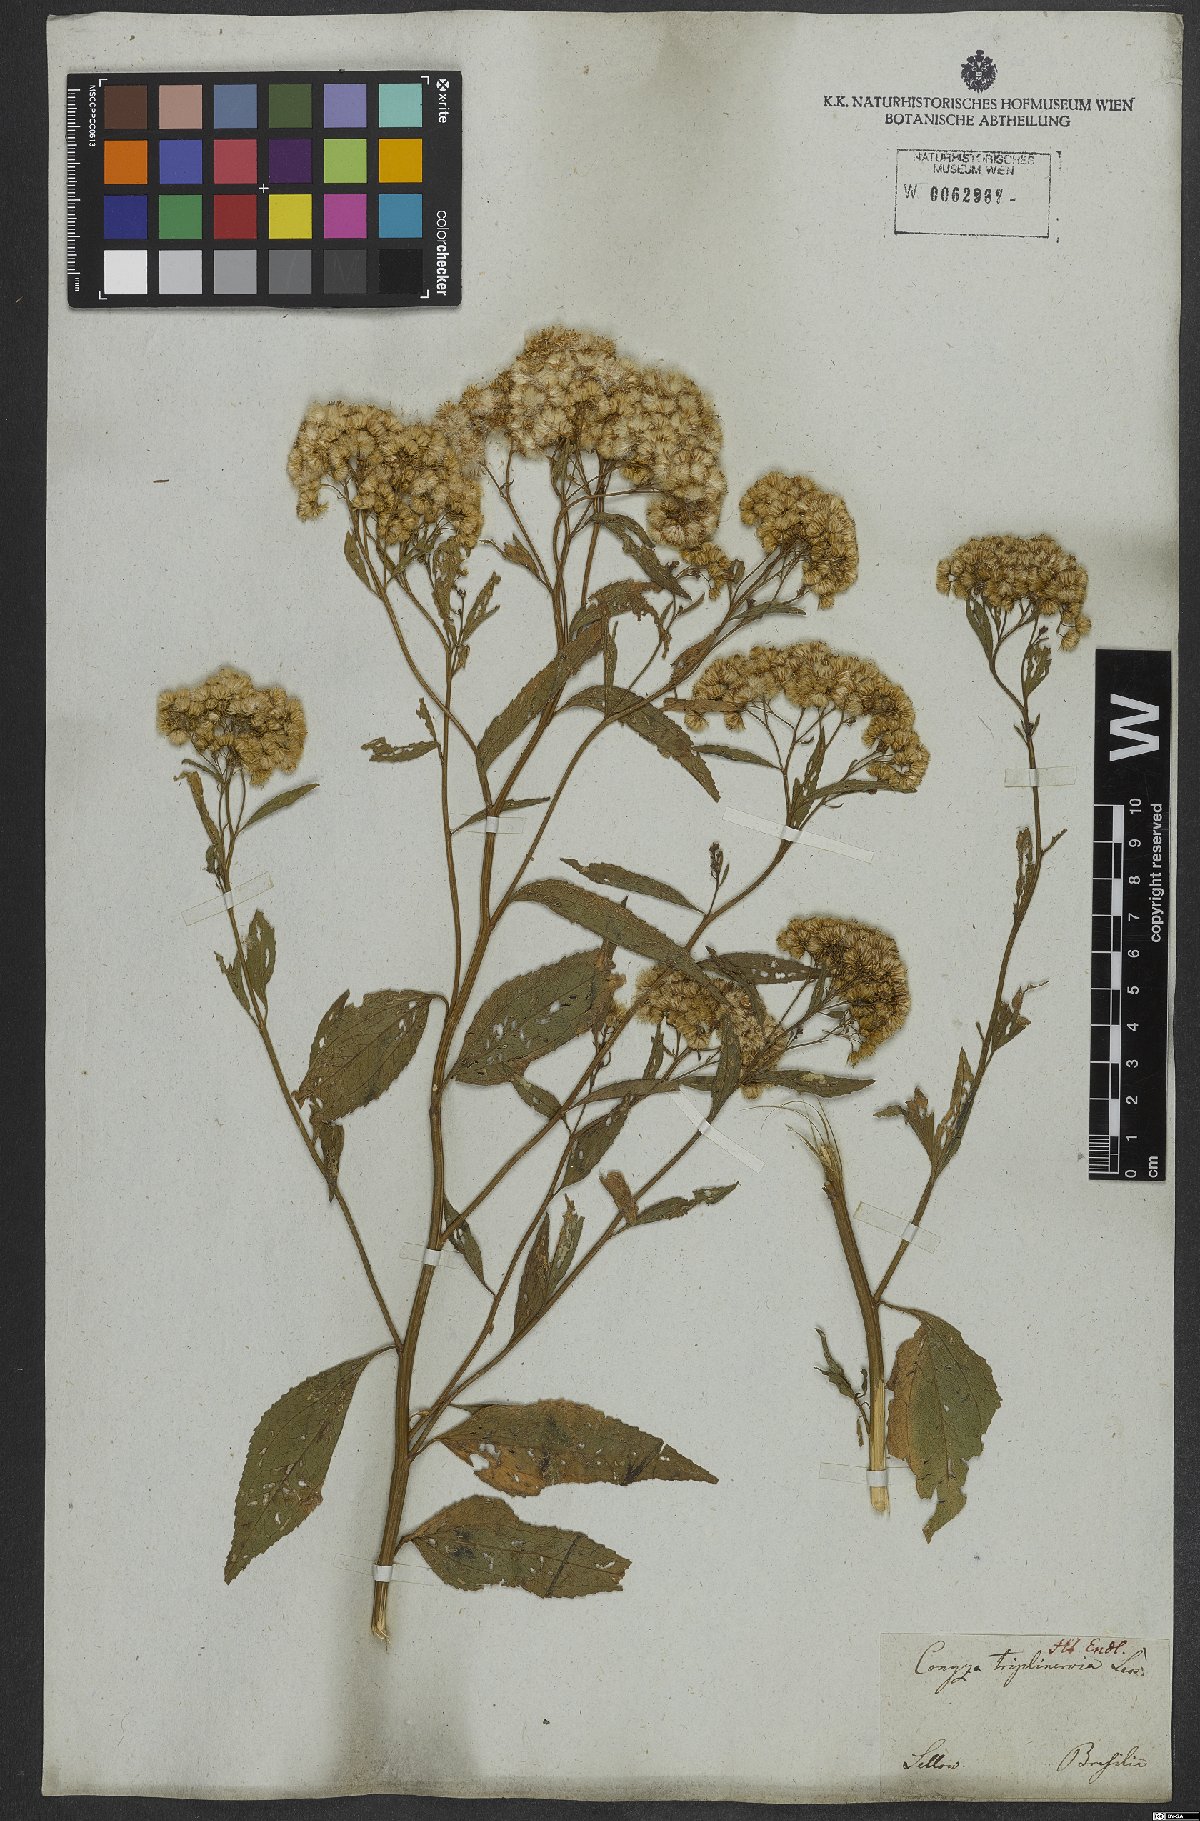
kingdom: Plantae
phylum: Tracheophyta
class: Magnoliopsida
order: Asterales
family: Asteraceae
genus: Archibaccharis
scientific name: Archibaccharis vulneraria
